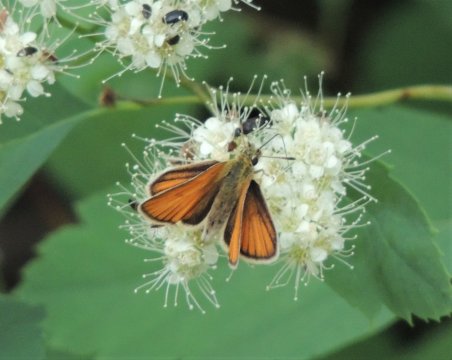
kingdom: Animalia
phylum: Arthropoda
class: Insecta
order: Lepidoptera
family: Hesperiidae
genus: Thymelicus
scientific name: Thymelicus lineola
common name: European Skipper
